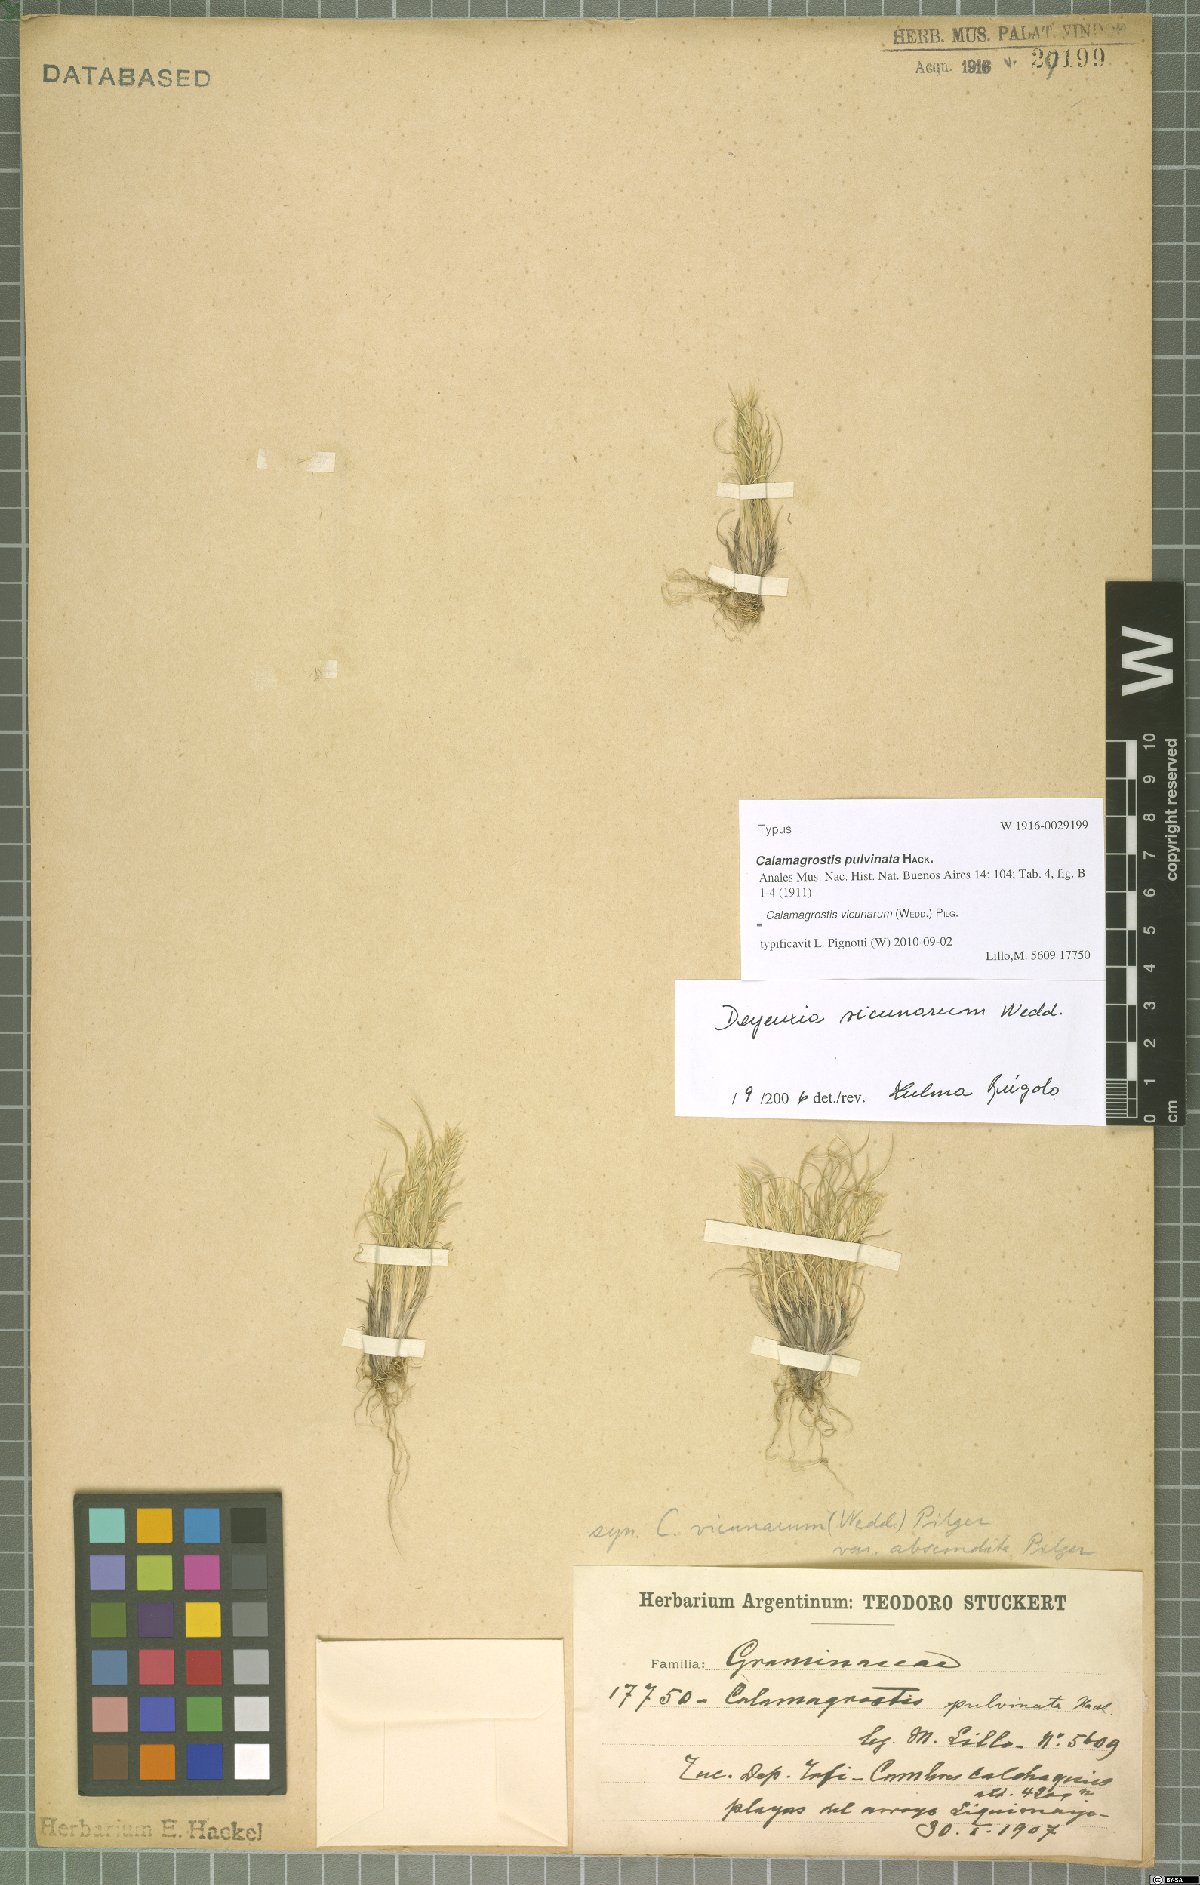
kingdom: Plantae
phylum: Tracheophyta
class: Liliopsida
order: Poales
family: Poaceae
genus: Cinnagrostis
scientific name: Cinnagrostis vicunarum
